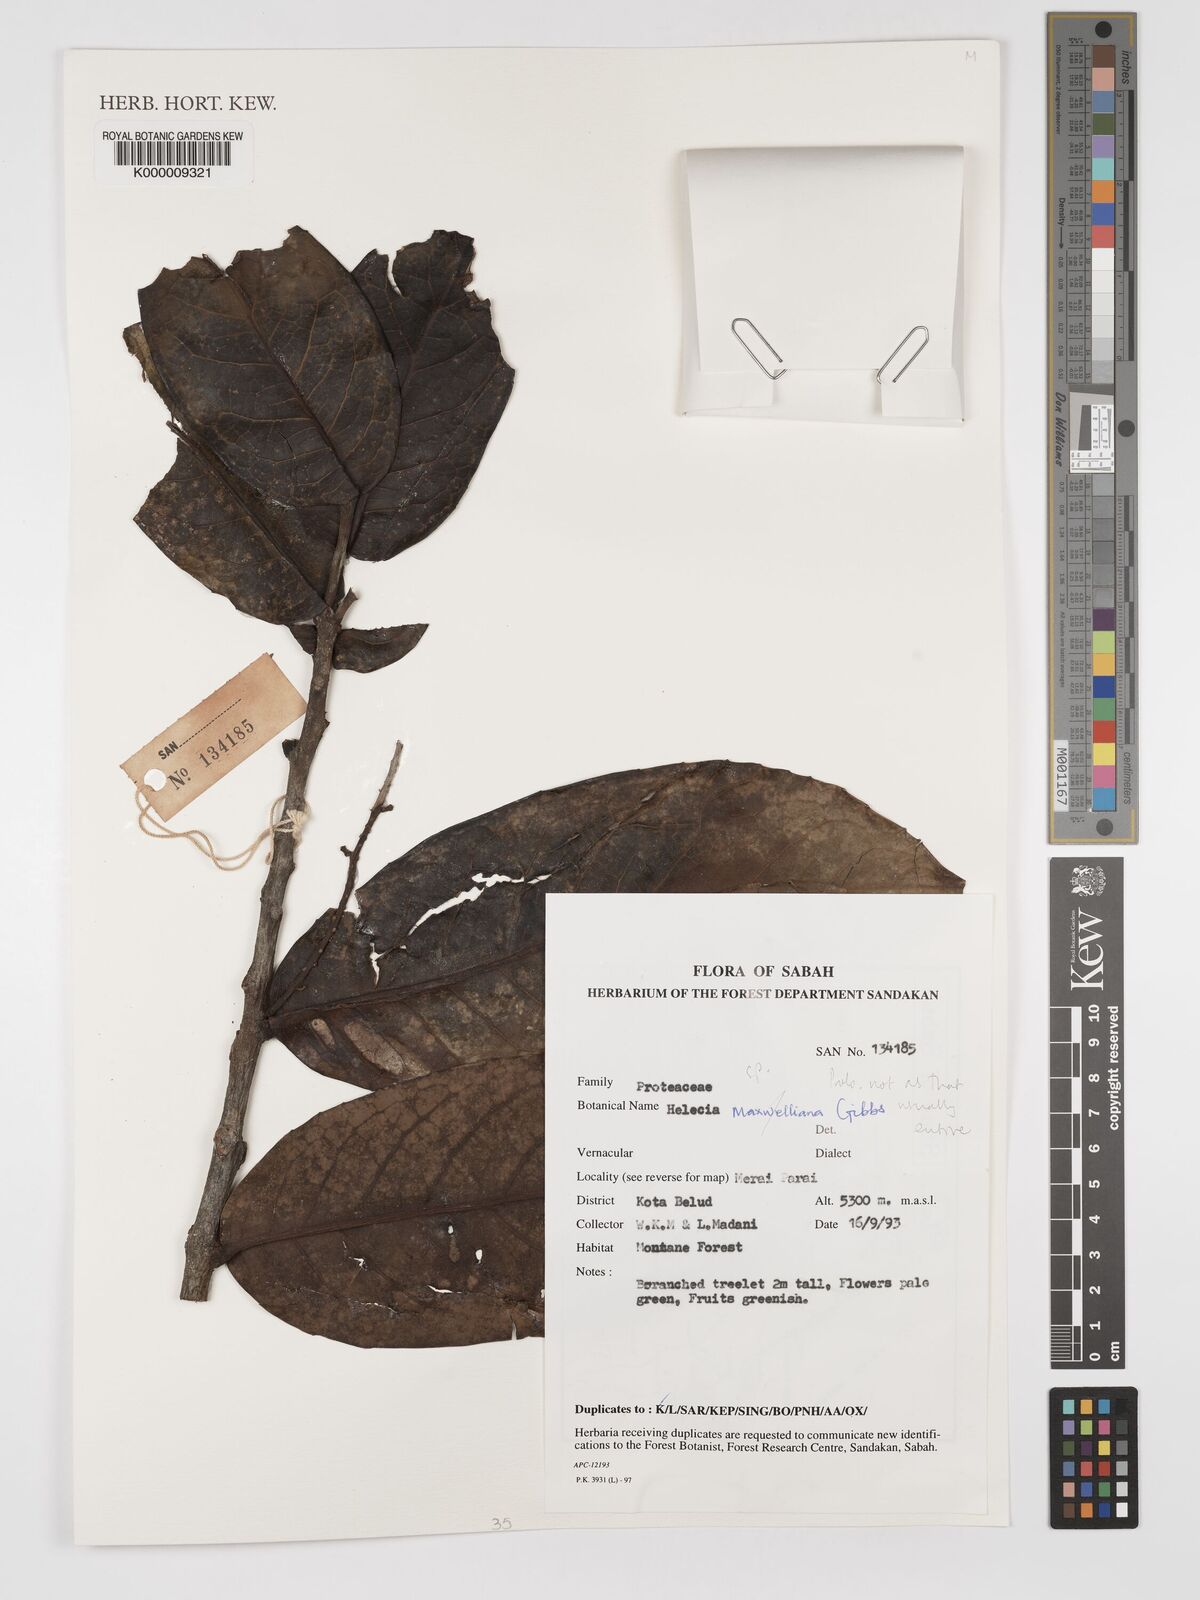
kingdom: Plantae
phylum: Tracheophyta
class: Magnoliopsida
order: Proteales
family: Proteaceae
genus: Helicia
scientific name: Helicia maxwelliana
